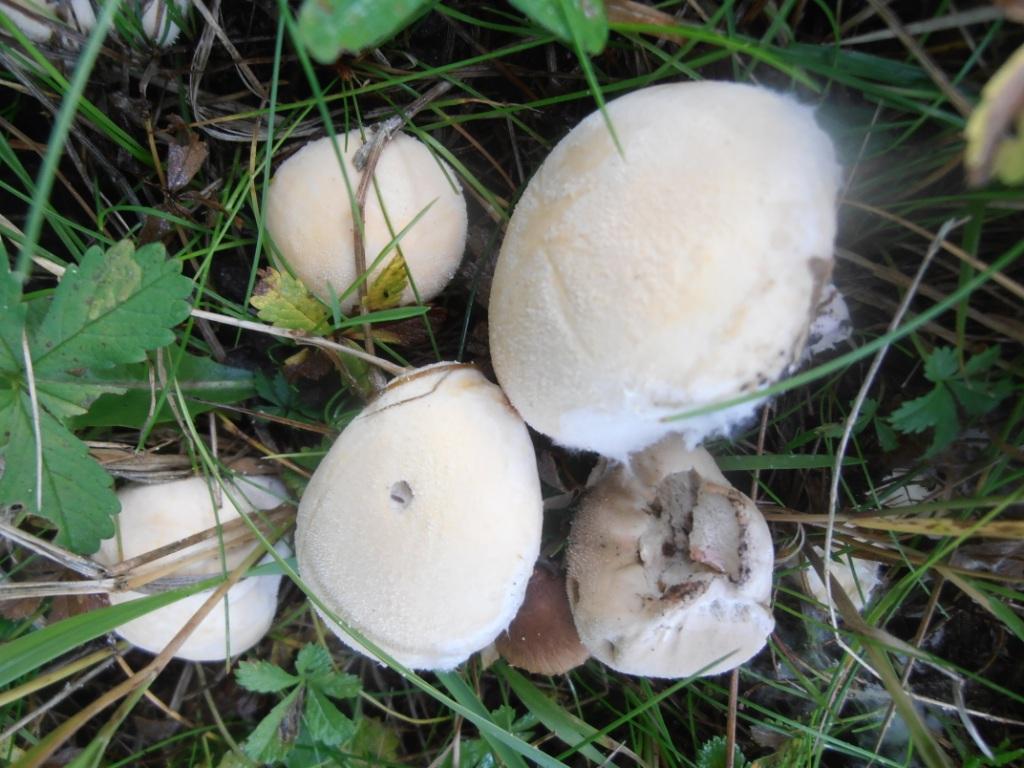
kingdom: Fungi
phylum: Basidiomycota
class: Agaricomycetes
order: Agaricales
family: Lycoperdaceae
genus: Lycoperdon
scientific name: Lycoperdon pratense
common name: flad støvbold
